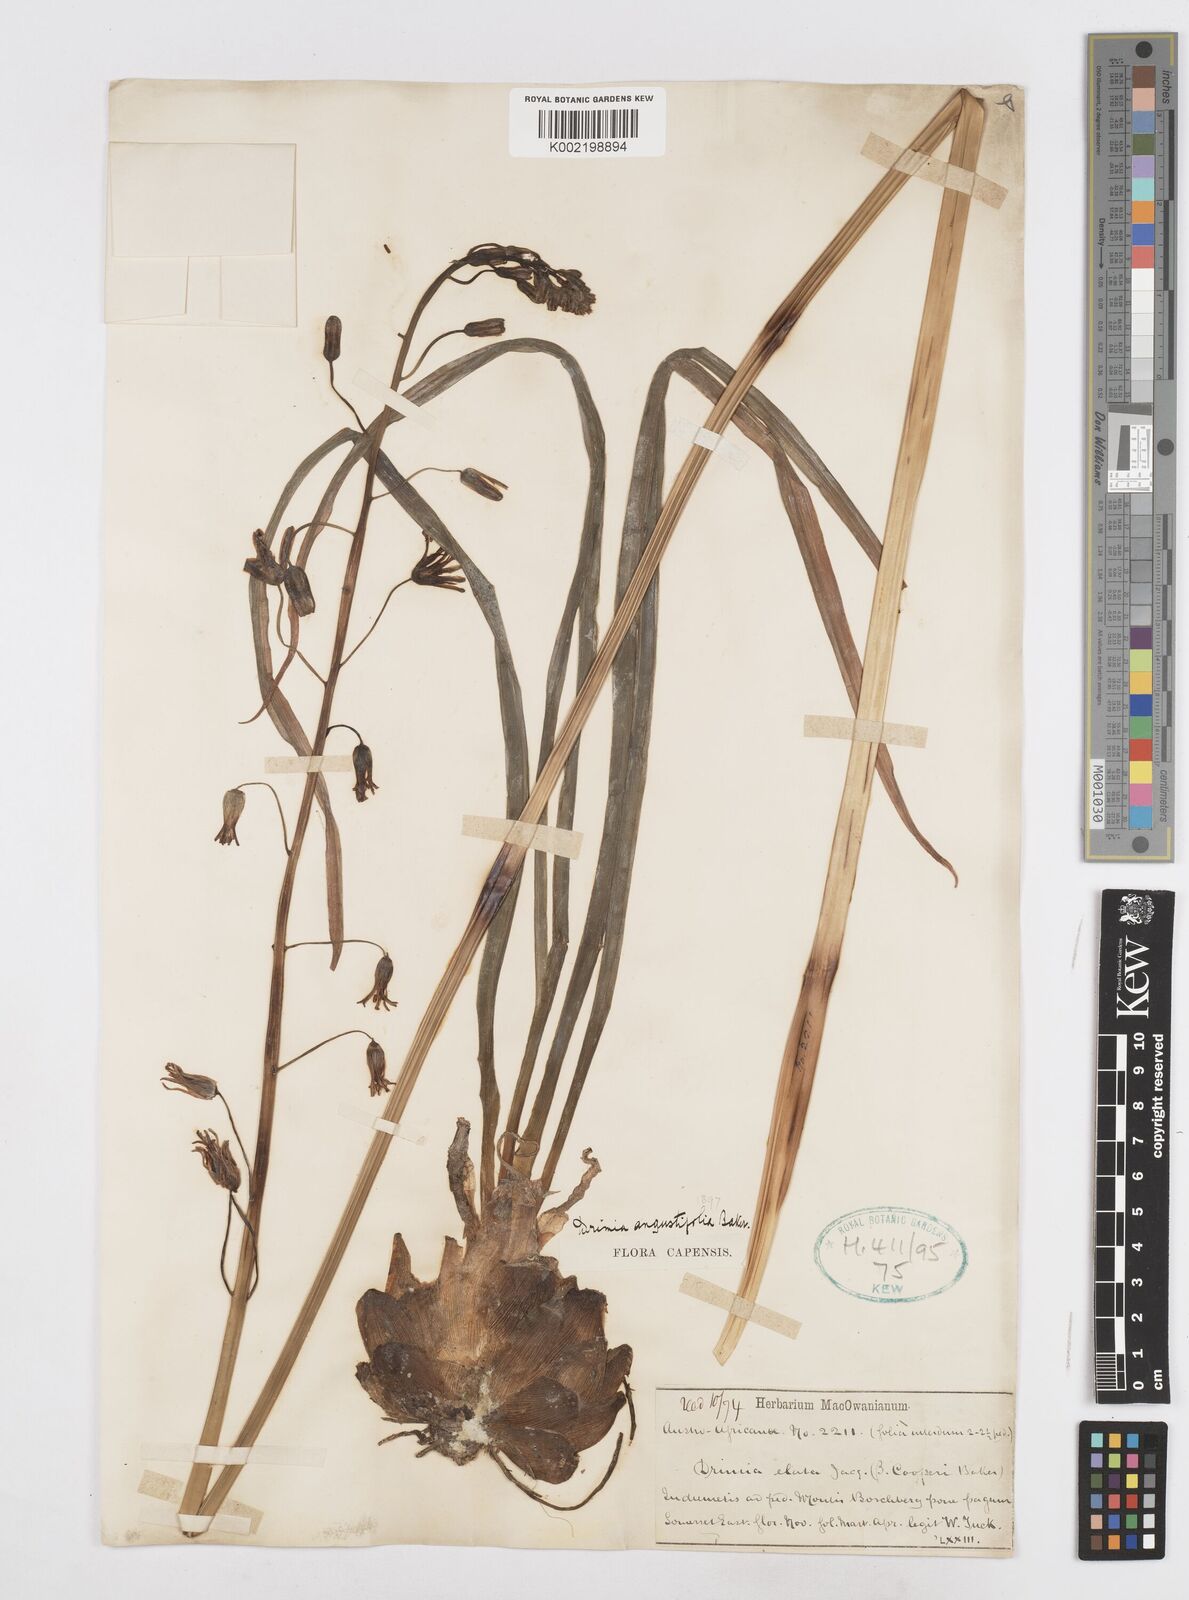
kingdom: Plantae
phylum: Tracheophyta
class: Liliopsida
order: Asparagales
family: Asparagaceae
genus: Drimia
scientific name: Drimia basutica
